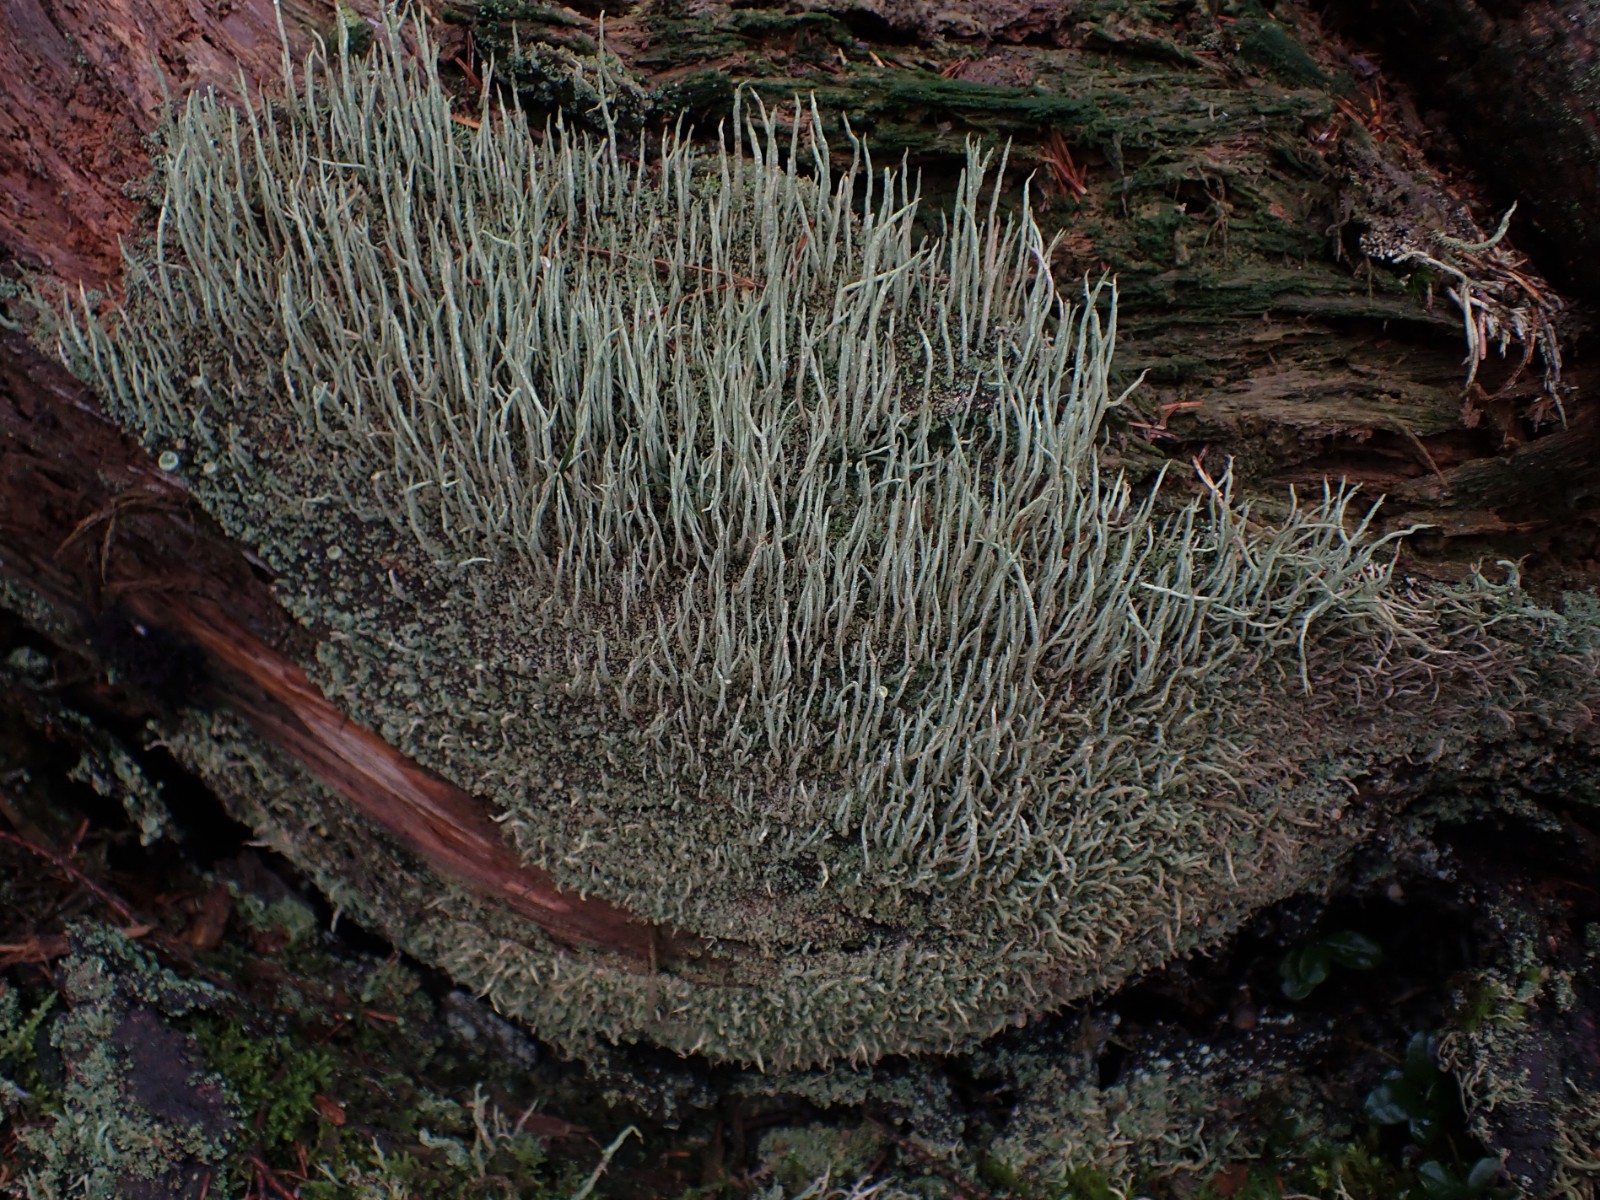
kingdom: Fungi
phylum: Ascomycota
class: Lecanoromycetes
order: Lecanorales
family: Cladoniaceae
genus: Cladonia
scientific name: Cladonia glauca
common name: grågrøn bægerlav
